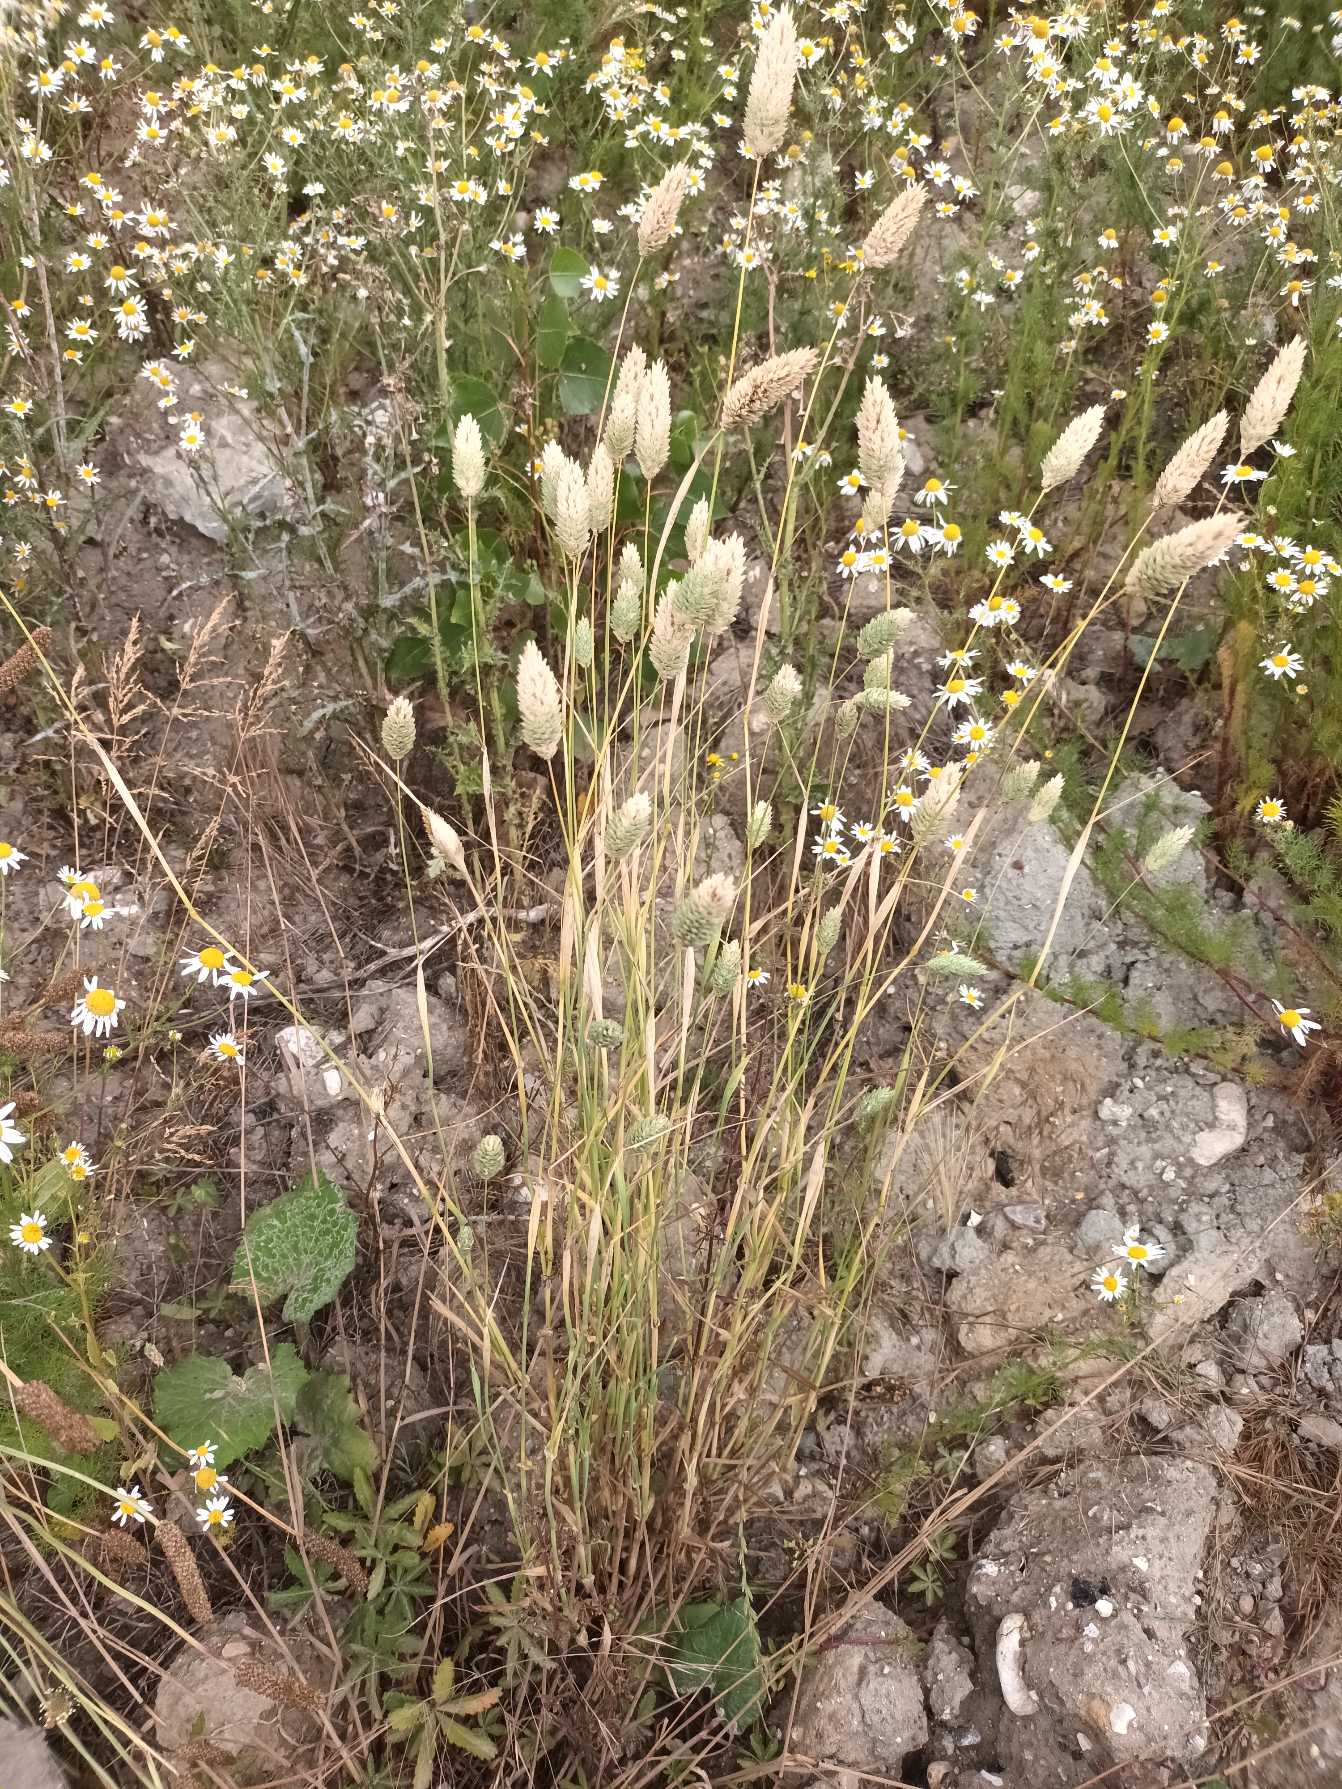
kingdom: Plantae
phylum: Tracheophyta
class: Liliopsida
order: Poales
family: Poaceae
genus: Phalaris
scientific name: Phalaris canariensis
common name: Kanariegræs
